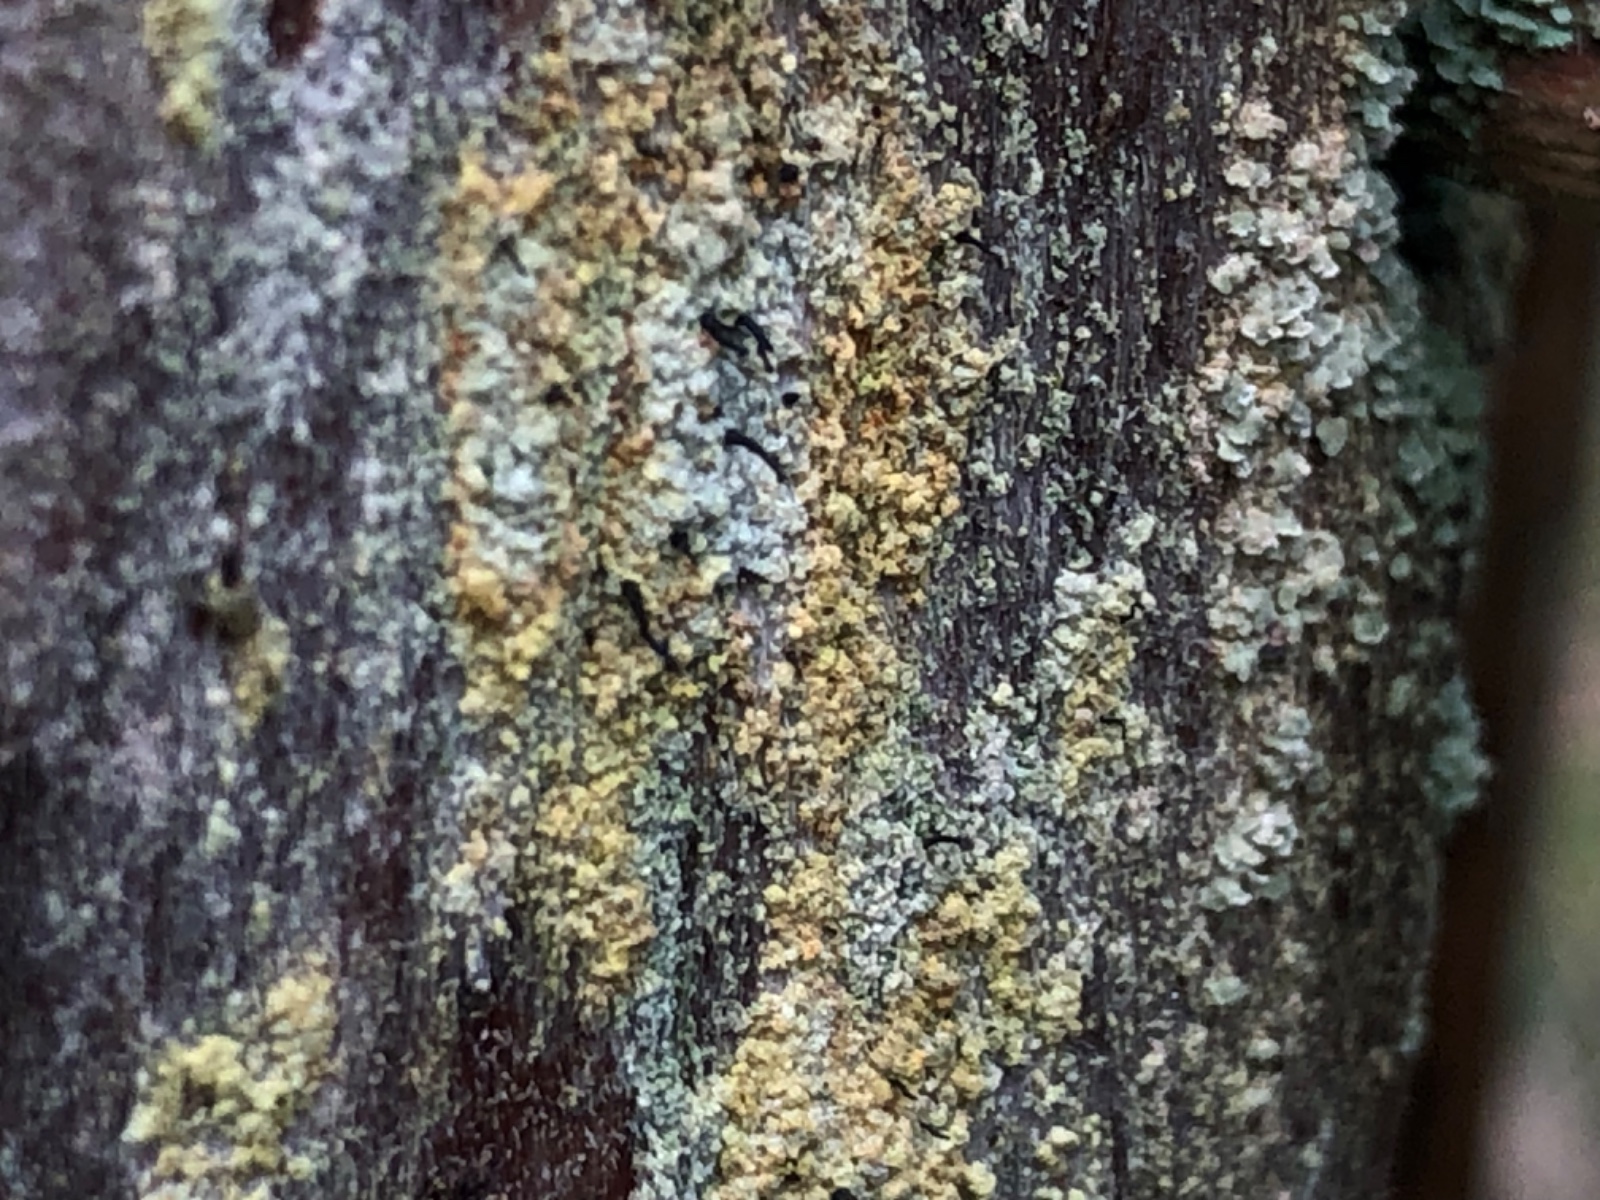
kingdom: Fungi
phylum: Ascomycota
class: Coniocybomycetes
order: Coniocybales
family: Coniocybaceae
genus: Chaenotheca
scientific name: Chaenotheca ferruginea
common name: rustbrun knappenålslav
